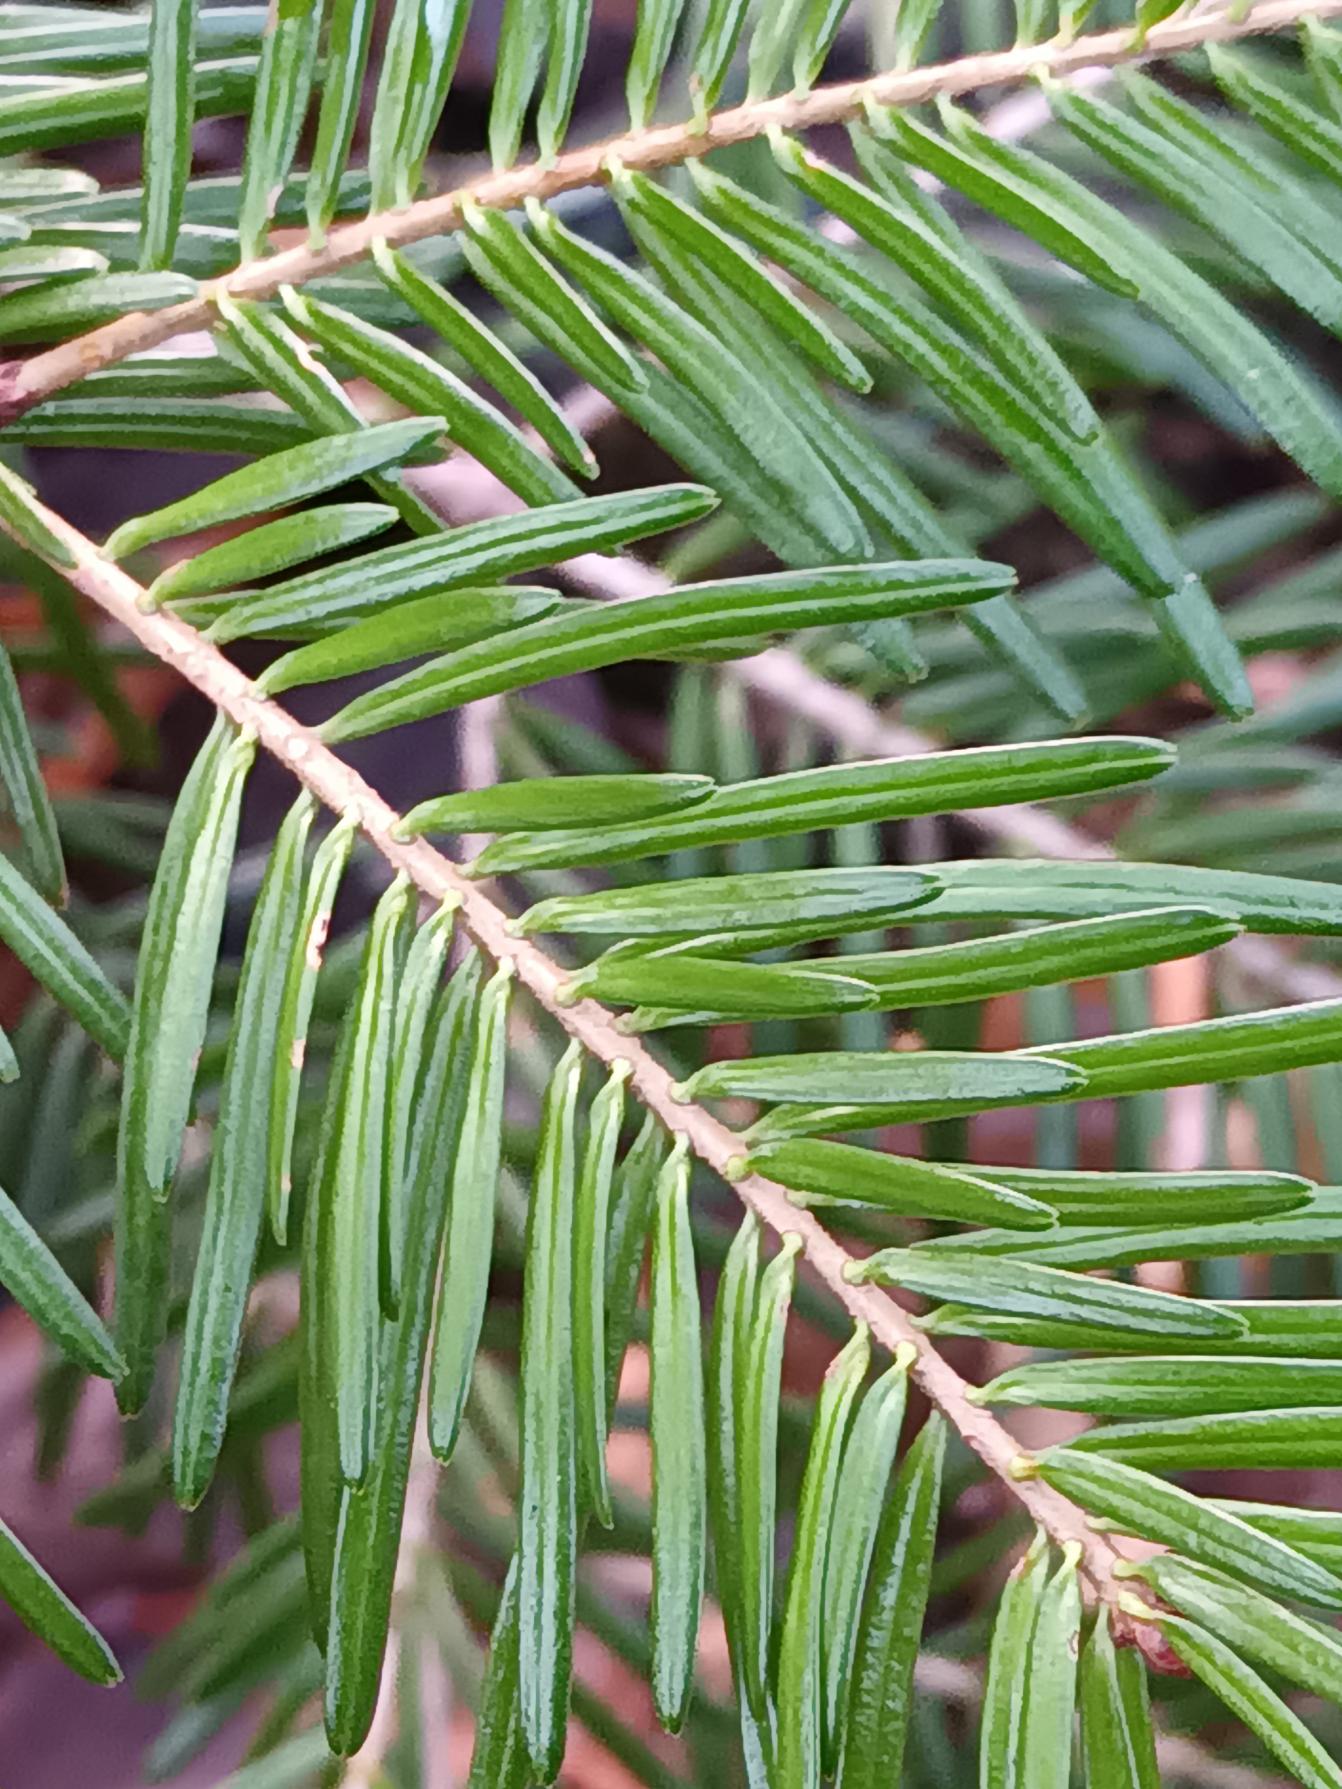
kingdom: Plantae
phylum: Tracheophyta
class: Pinopsida
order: Pinales
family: Pinaceae
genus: Abies
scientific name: Abies grandis
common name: Kæmpegran
